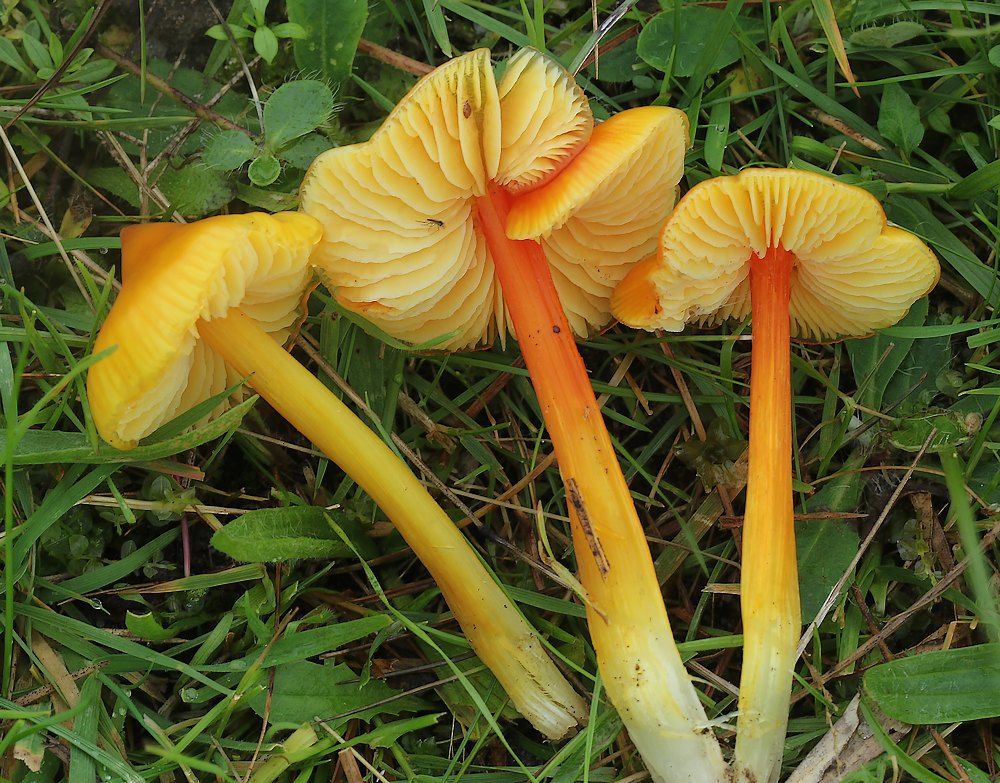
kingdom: Fungi
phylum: Basidiomycota
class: Agaricomycetes
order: Agaricales
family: Hygrophoraceae
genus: Hygrocybe
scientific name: Hygrocybe acutoconica
